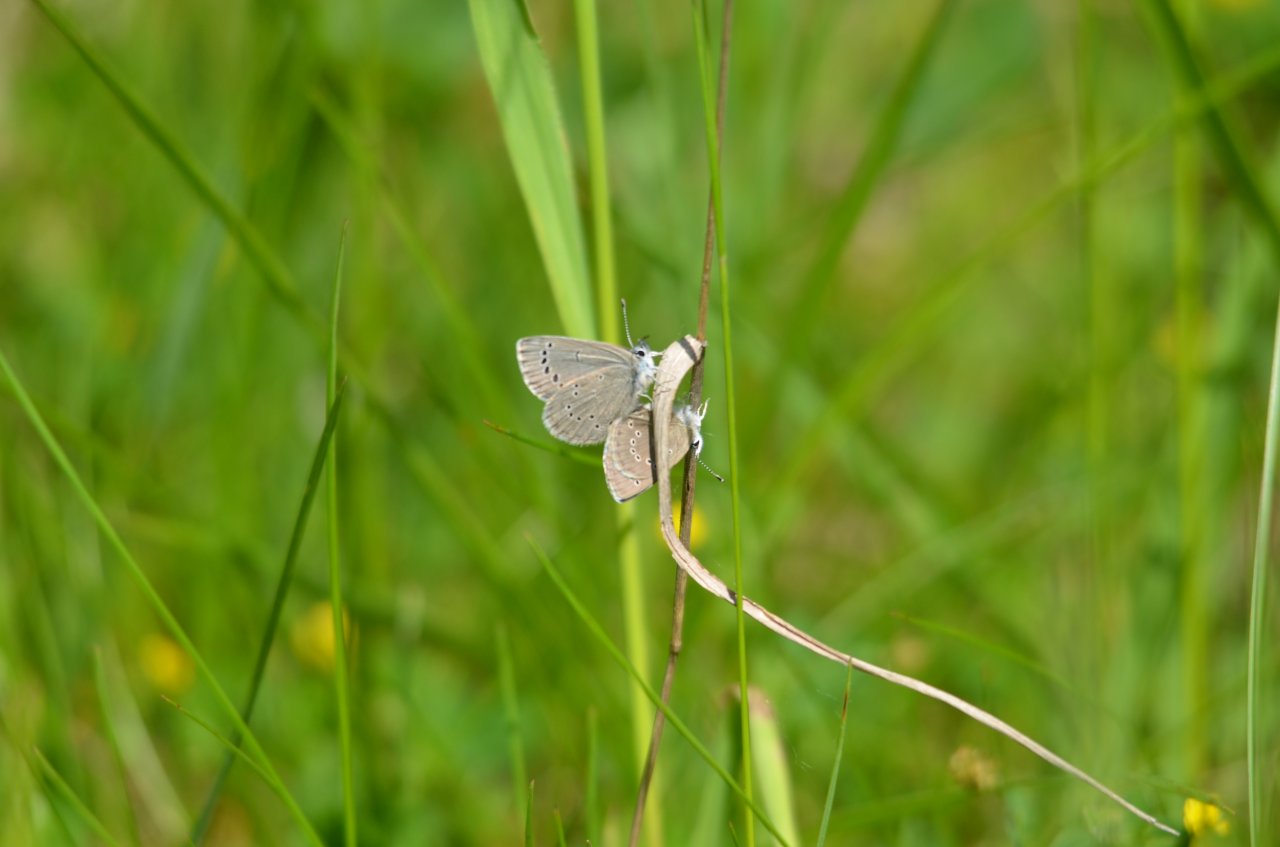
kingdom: Animalia
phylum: Arthropoda
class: Insecta
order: Lepidoptera
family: Lycaenidae
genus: Glaucopsyche
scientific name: Glaucopsyche lygdamus
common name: Silvery Blue
